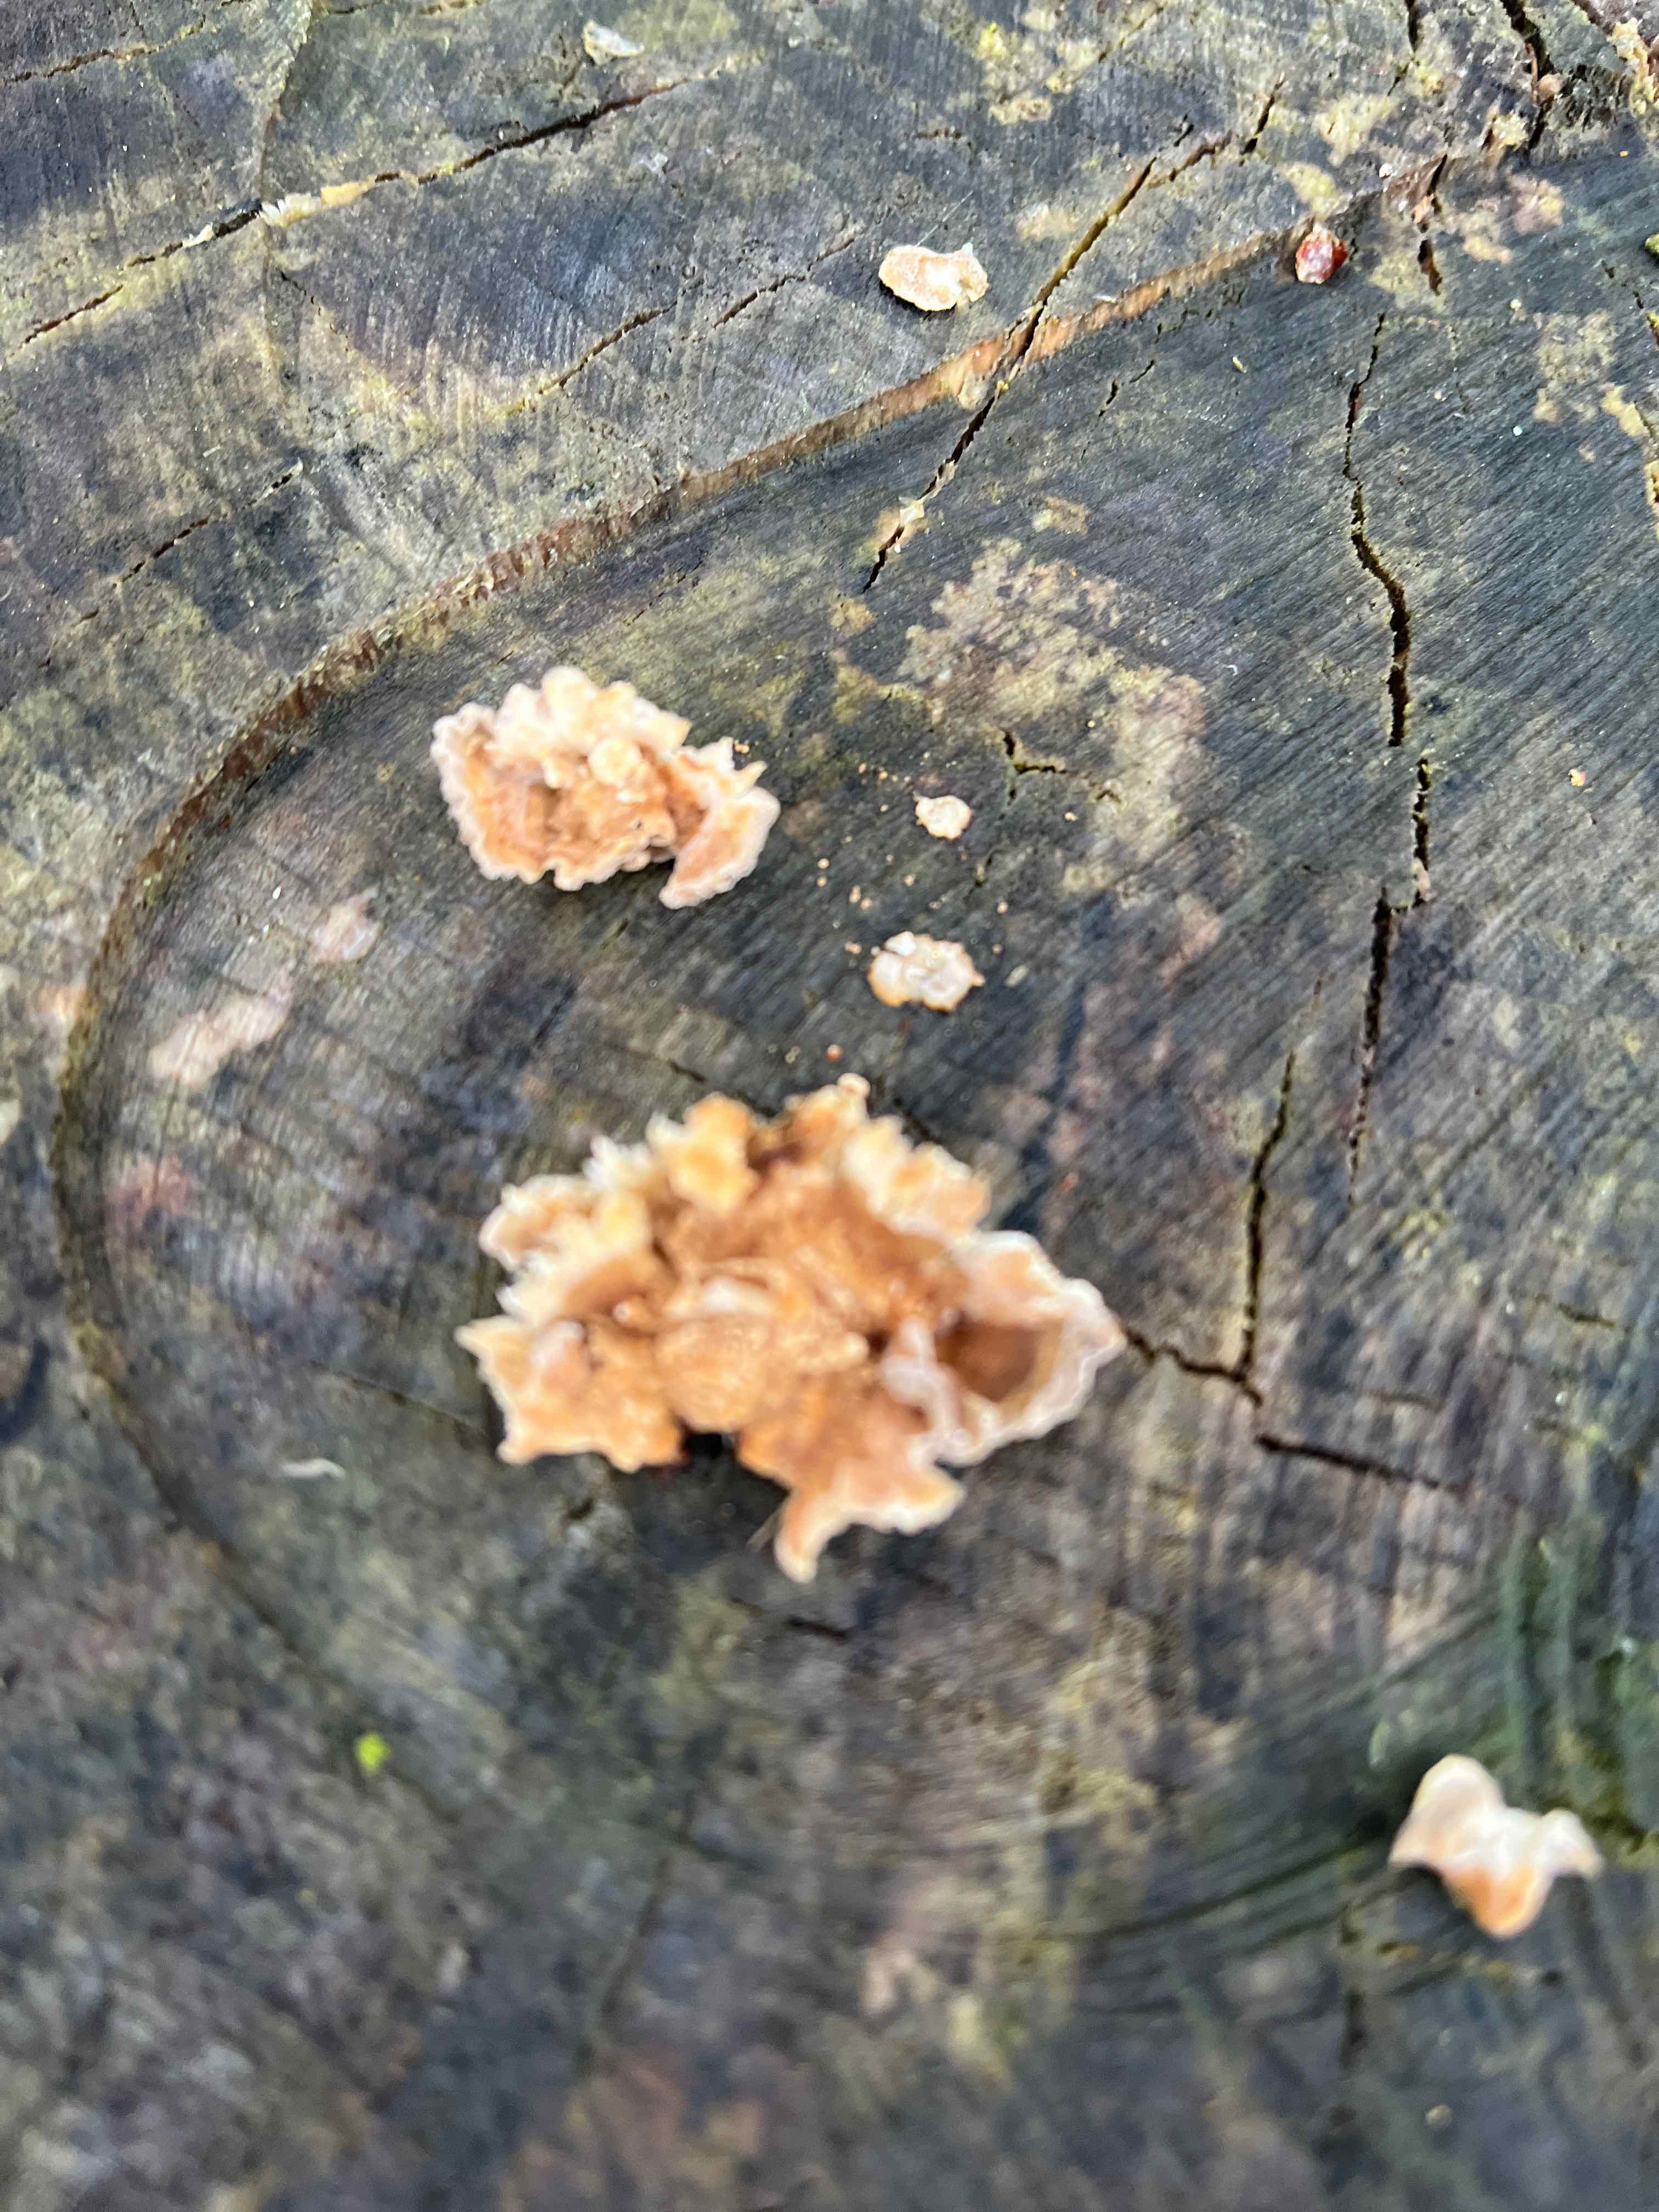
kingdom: Fungi
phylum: Basidiomycota
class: Agaricomycetes
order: Russulales
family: Stereaceae
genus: Stereum
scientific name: Stereum hirsutum
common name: håret lædersvamp
